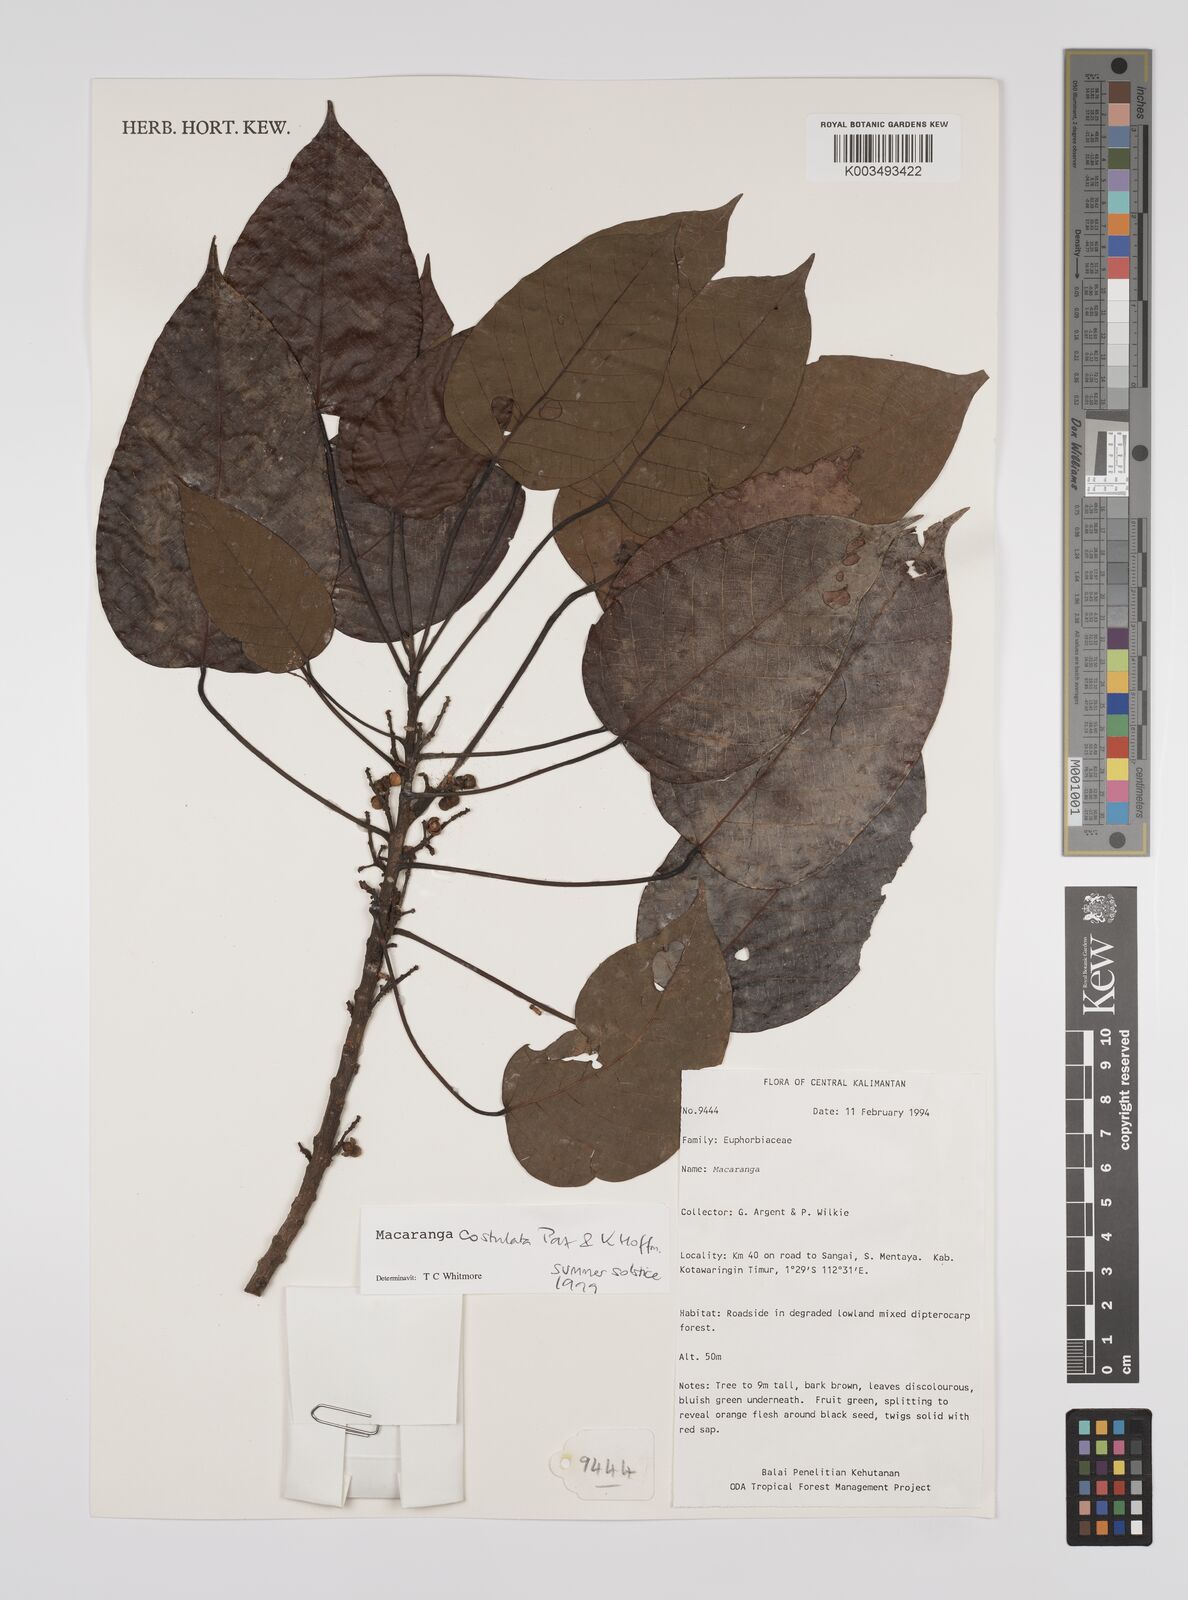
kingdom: Plantae
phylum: Tracheophyta
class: Magnoliopsida
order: Malpighiales
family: Euphorbiaceae
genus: Macaranga
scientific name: Macaranga costulata
